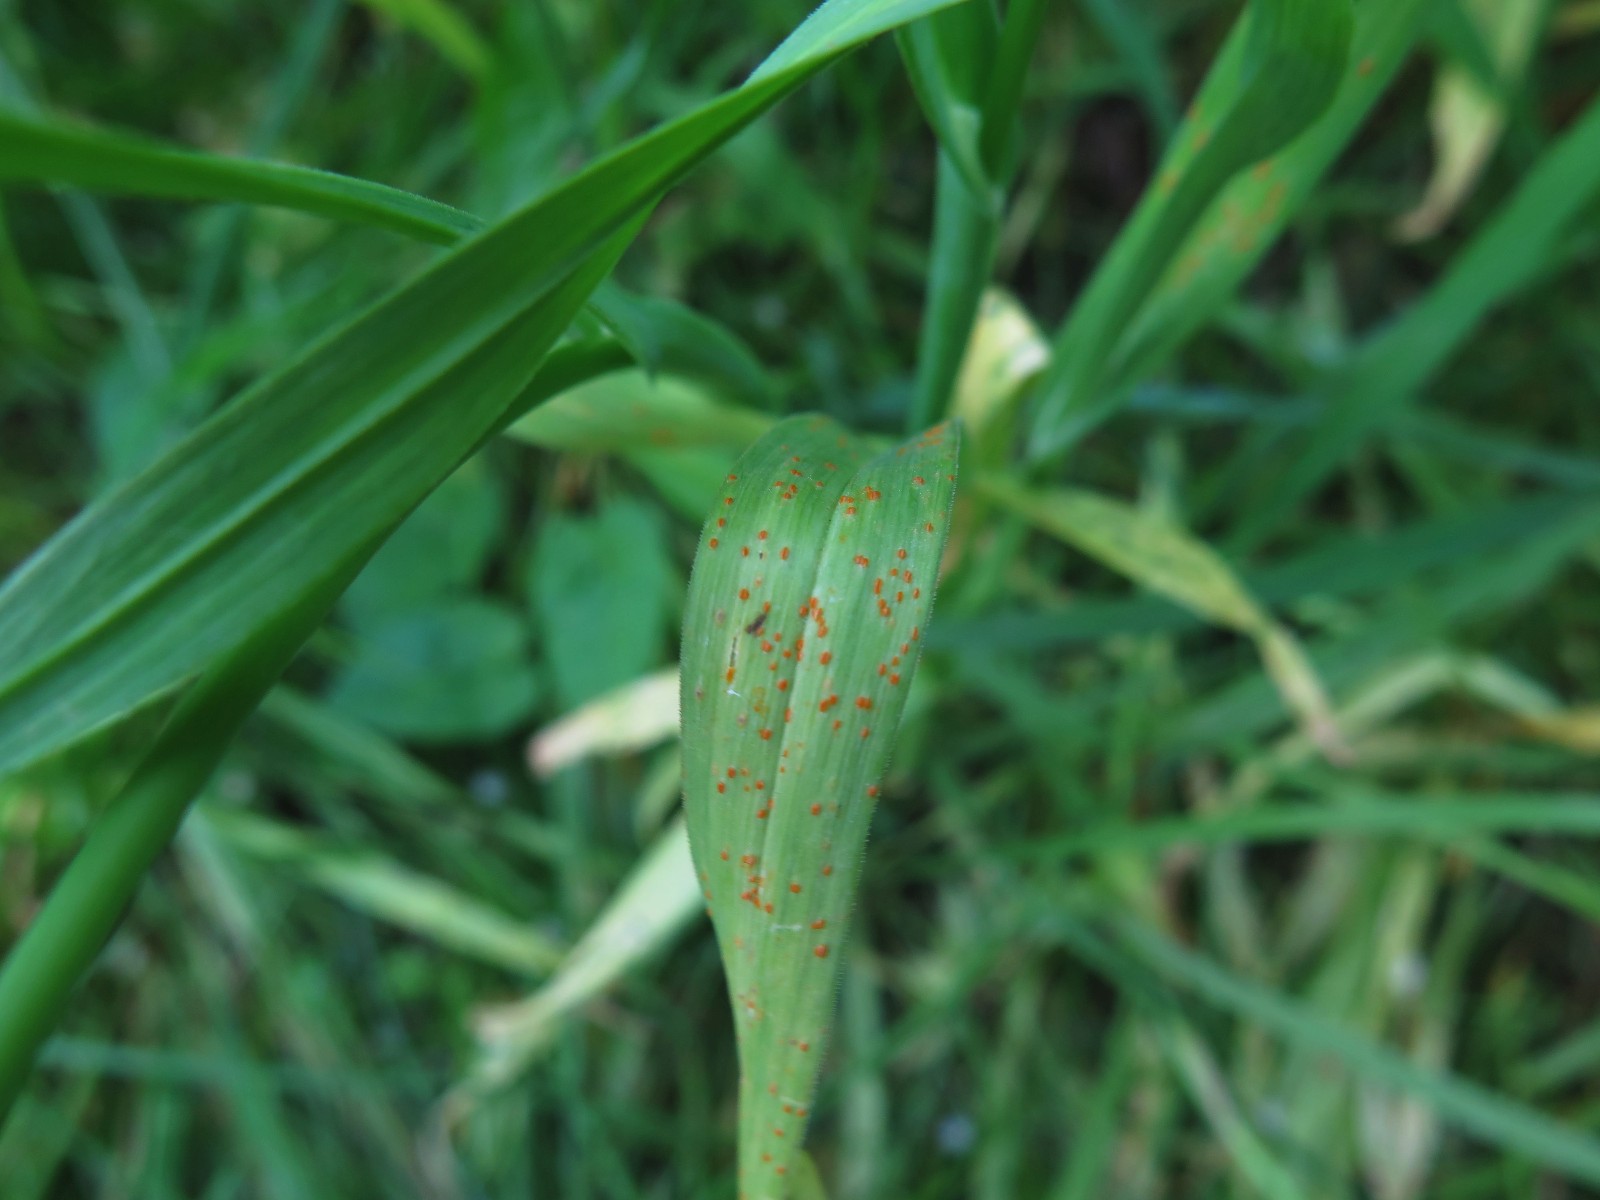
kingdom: Fungi
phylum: Basidiomycota
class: Pucciniomycetes
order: Pucciniales
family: Pucciniaceae
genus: Puccinia
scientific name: Puccinia porri
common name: Allium rust
